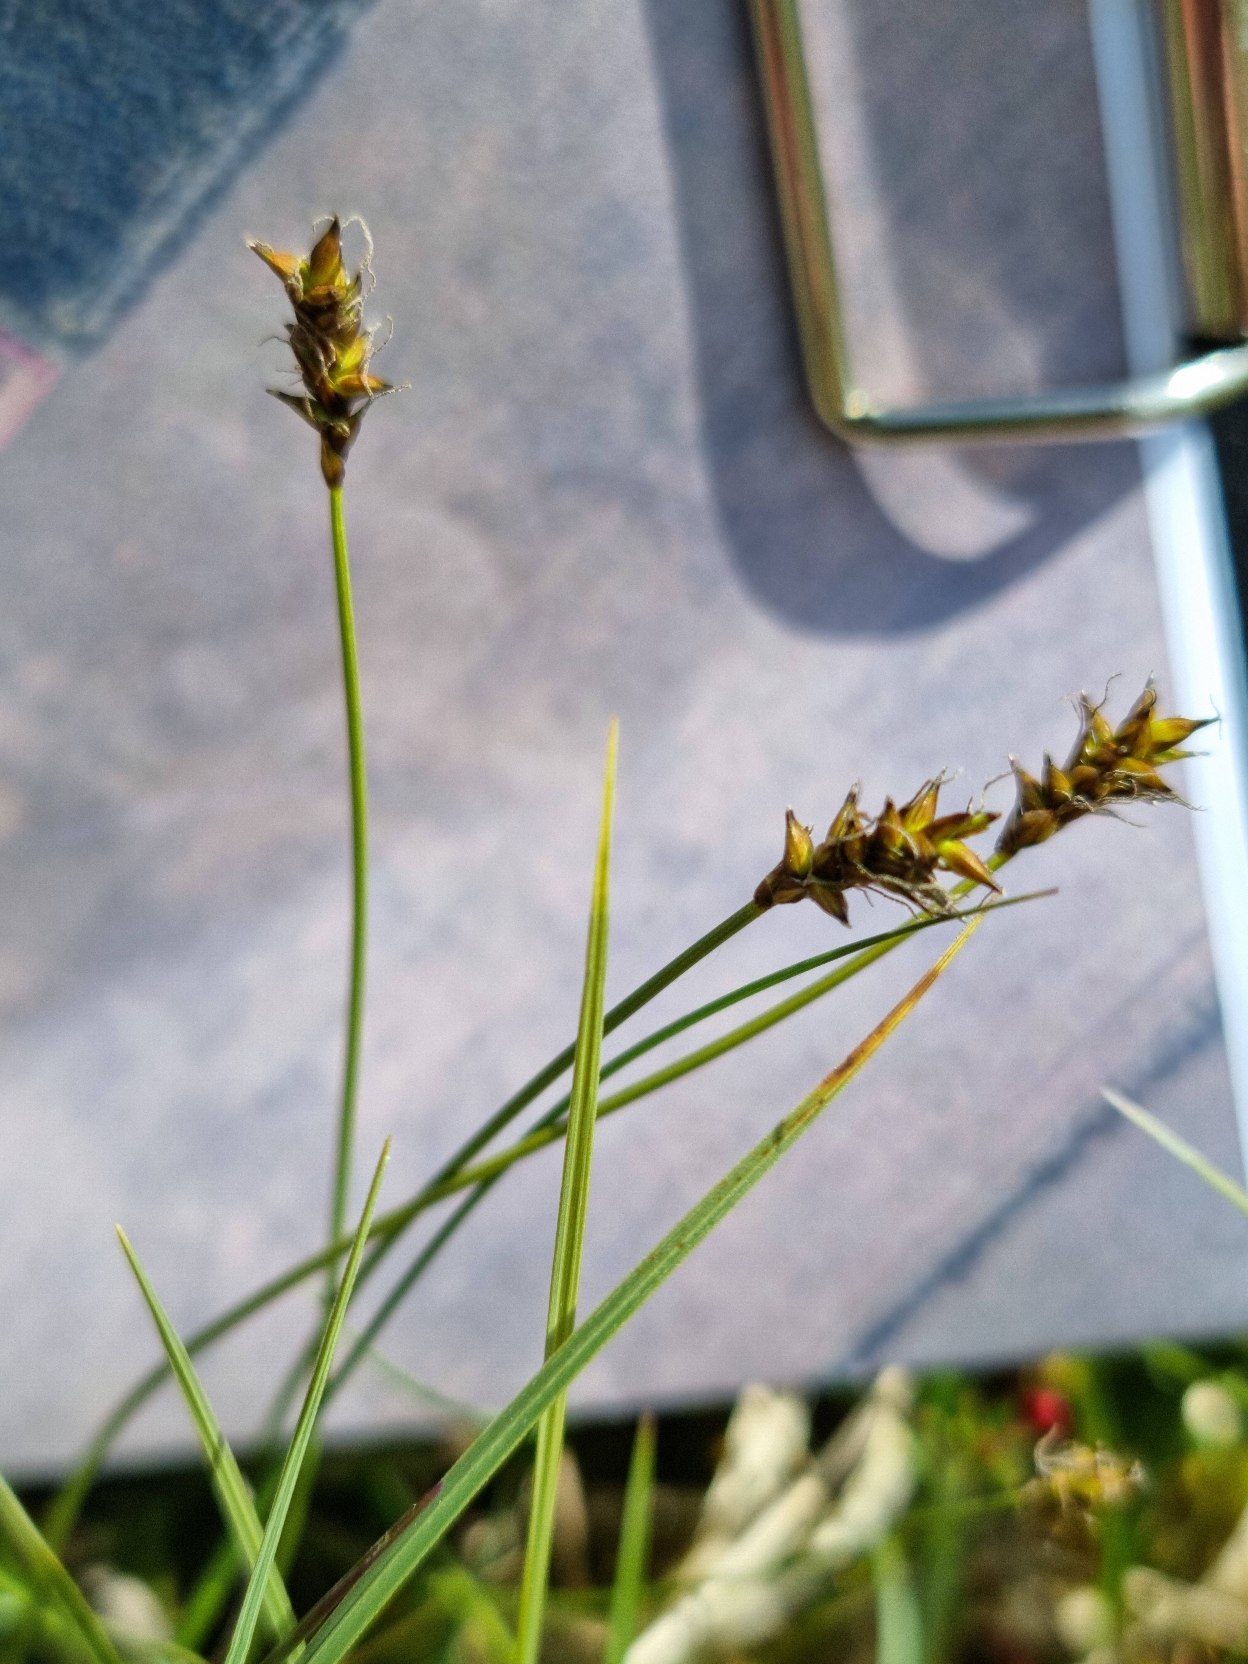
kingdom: Plantae
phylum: Tracheophyta
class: Liliopsida
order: Poales
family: Cyperaceae
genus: Carex
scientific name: Carex dioica
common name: Tvebo star
